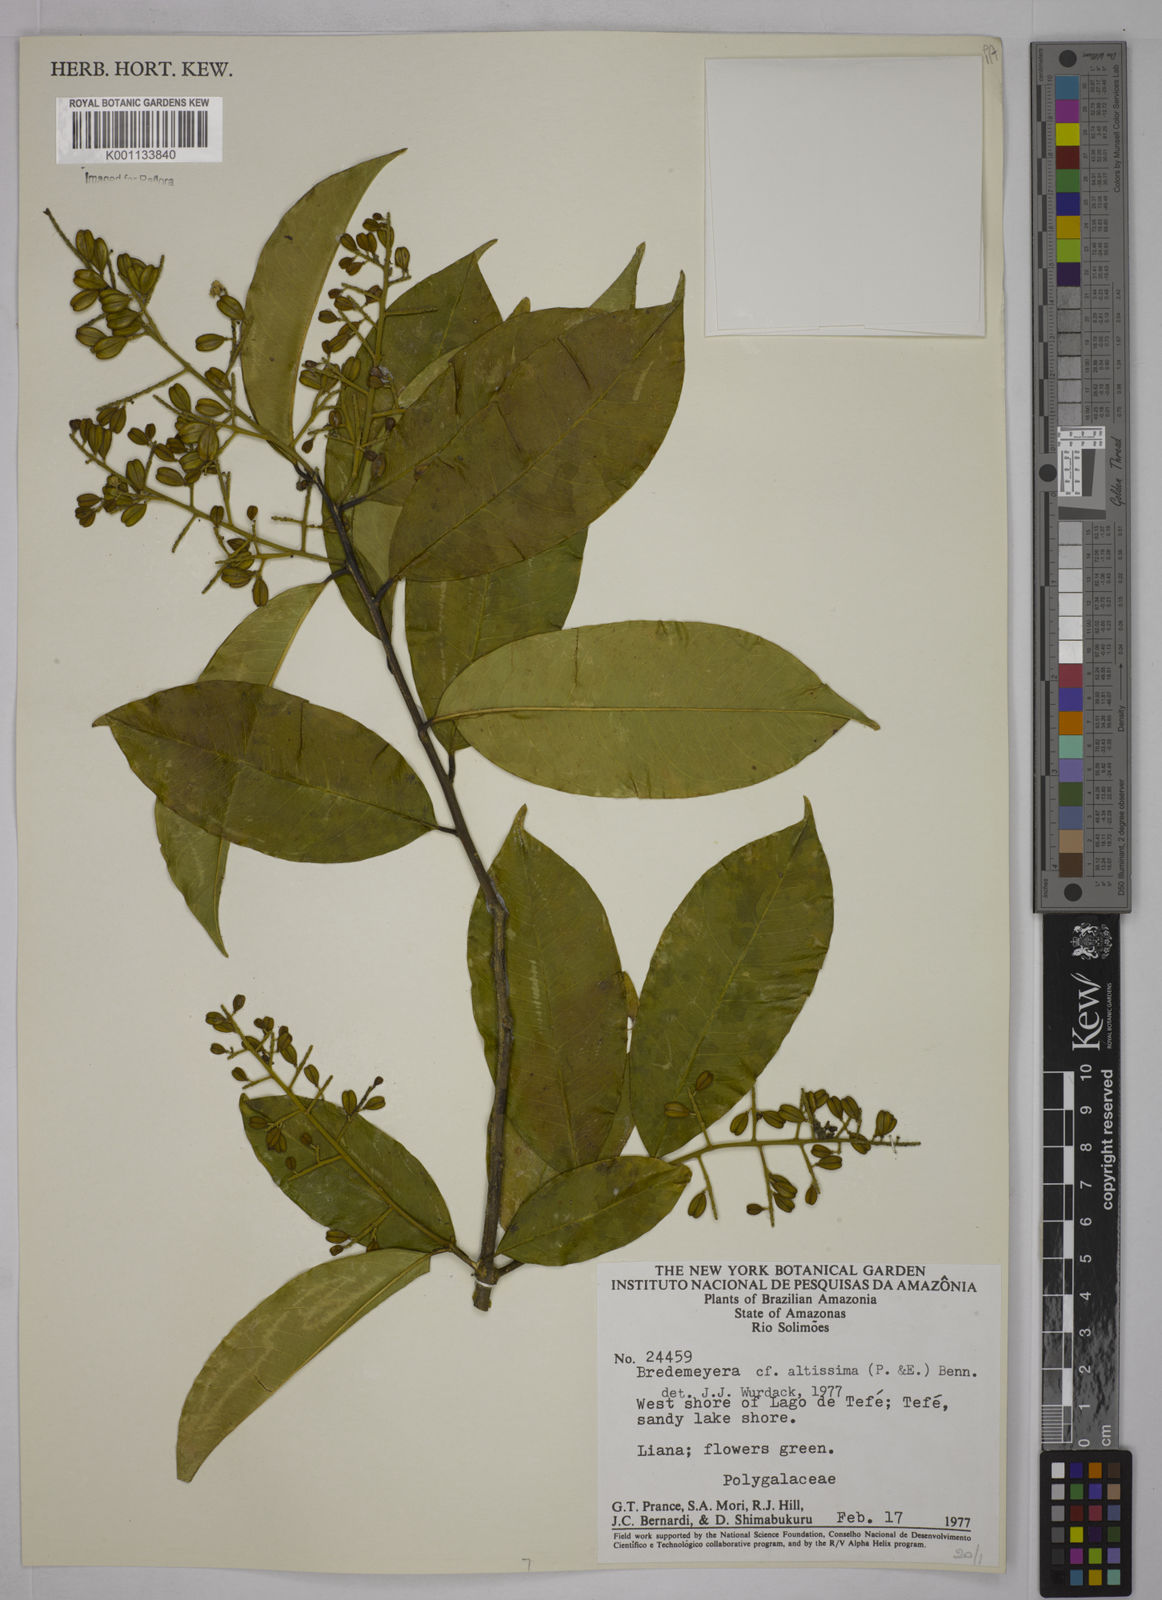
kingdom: Plantae
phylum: Tracheophyta
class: Magnoliopsida
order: Fabales
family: Polygalaceae
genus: Bredemeyera
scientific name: Bredemeyera divaricata
